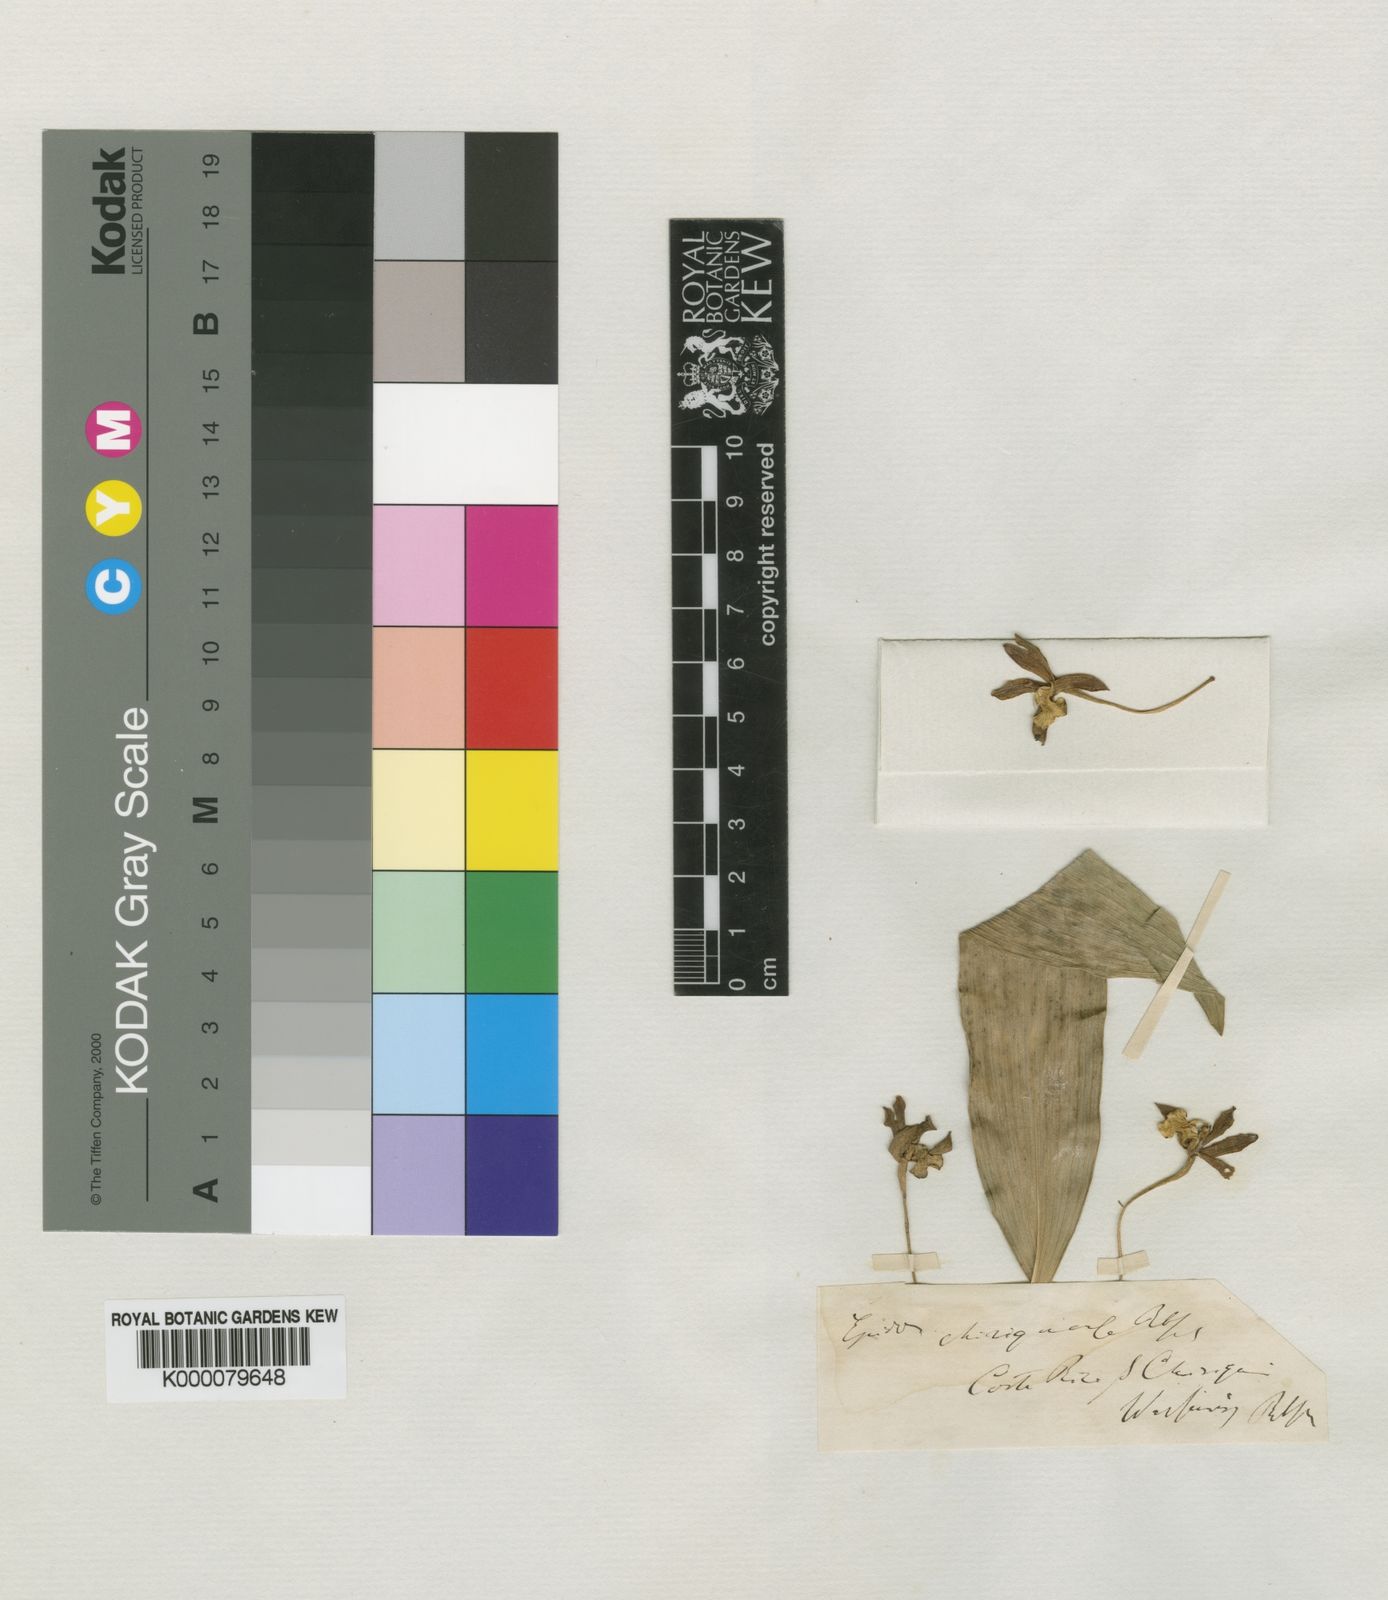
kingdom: Plantae
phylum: Tracheophyta
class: Liliopsida
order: Asparagales
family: Orchidaceae
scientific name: Orchidaceae
